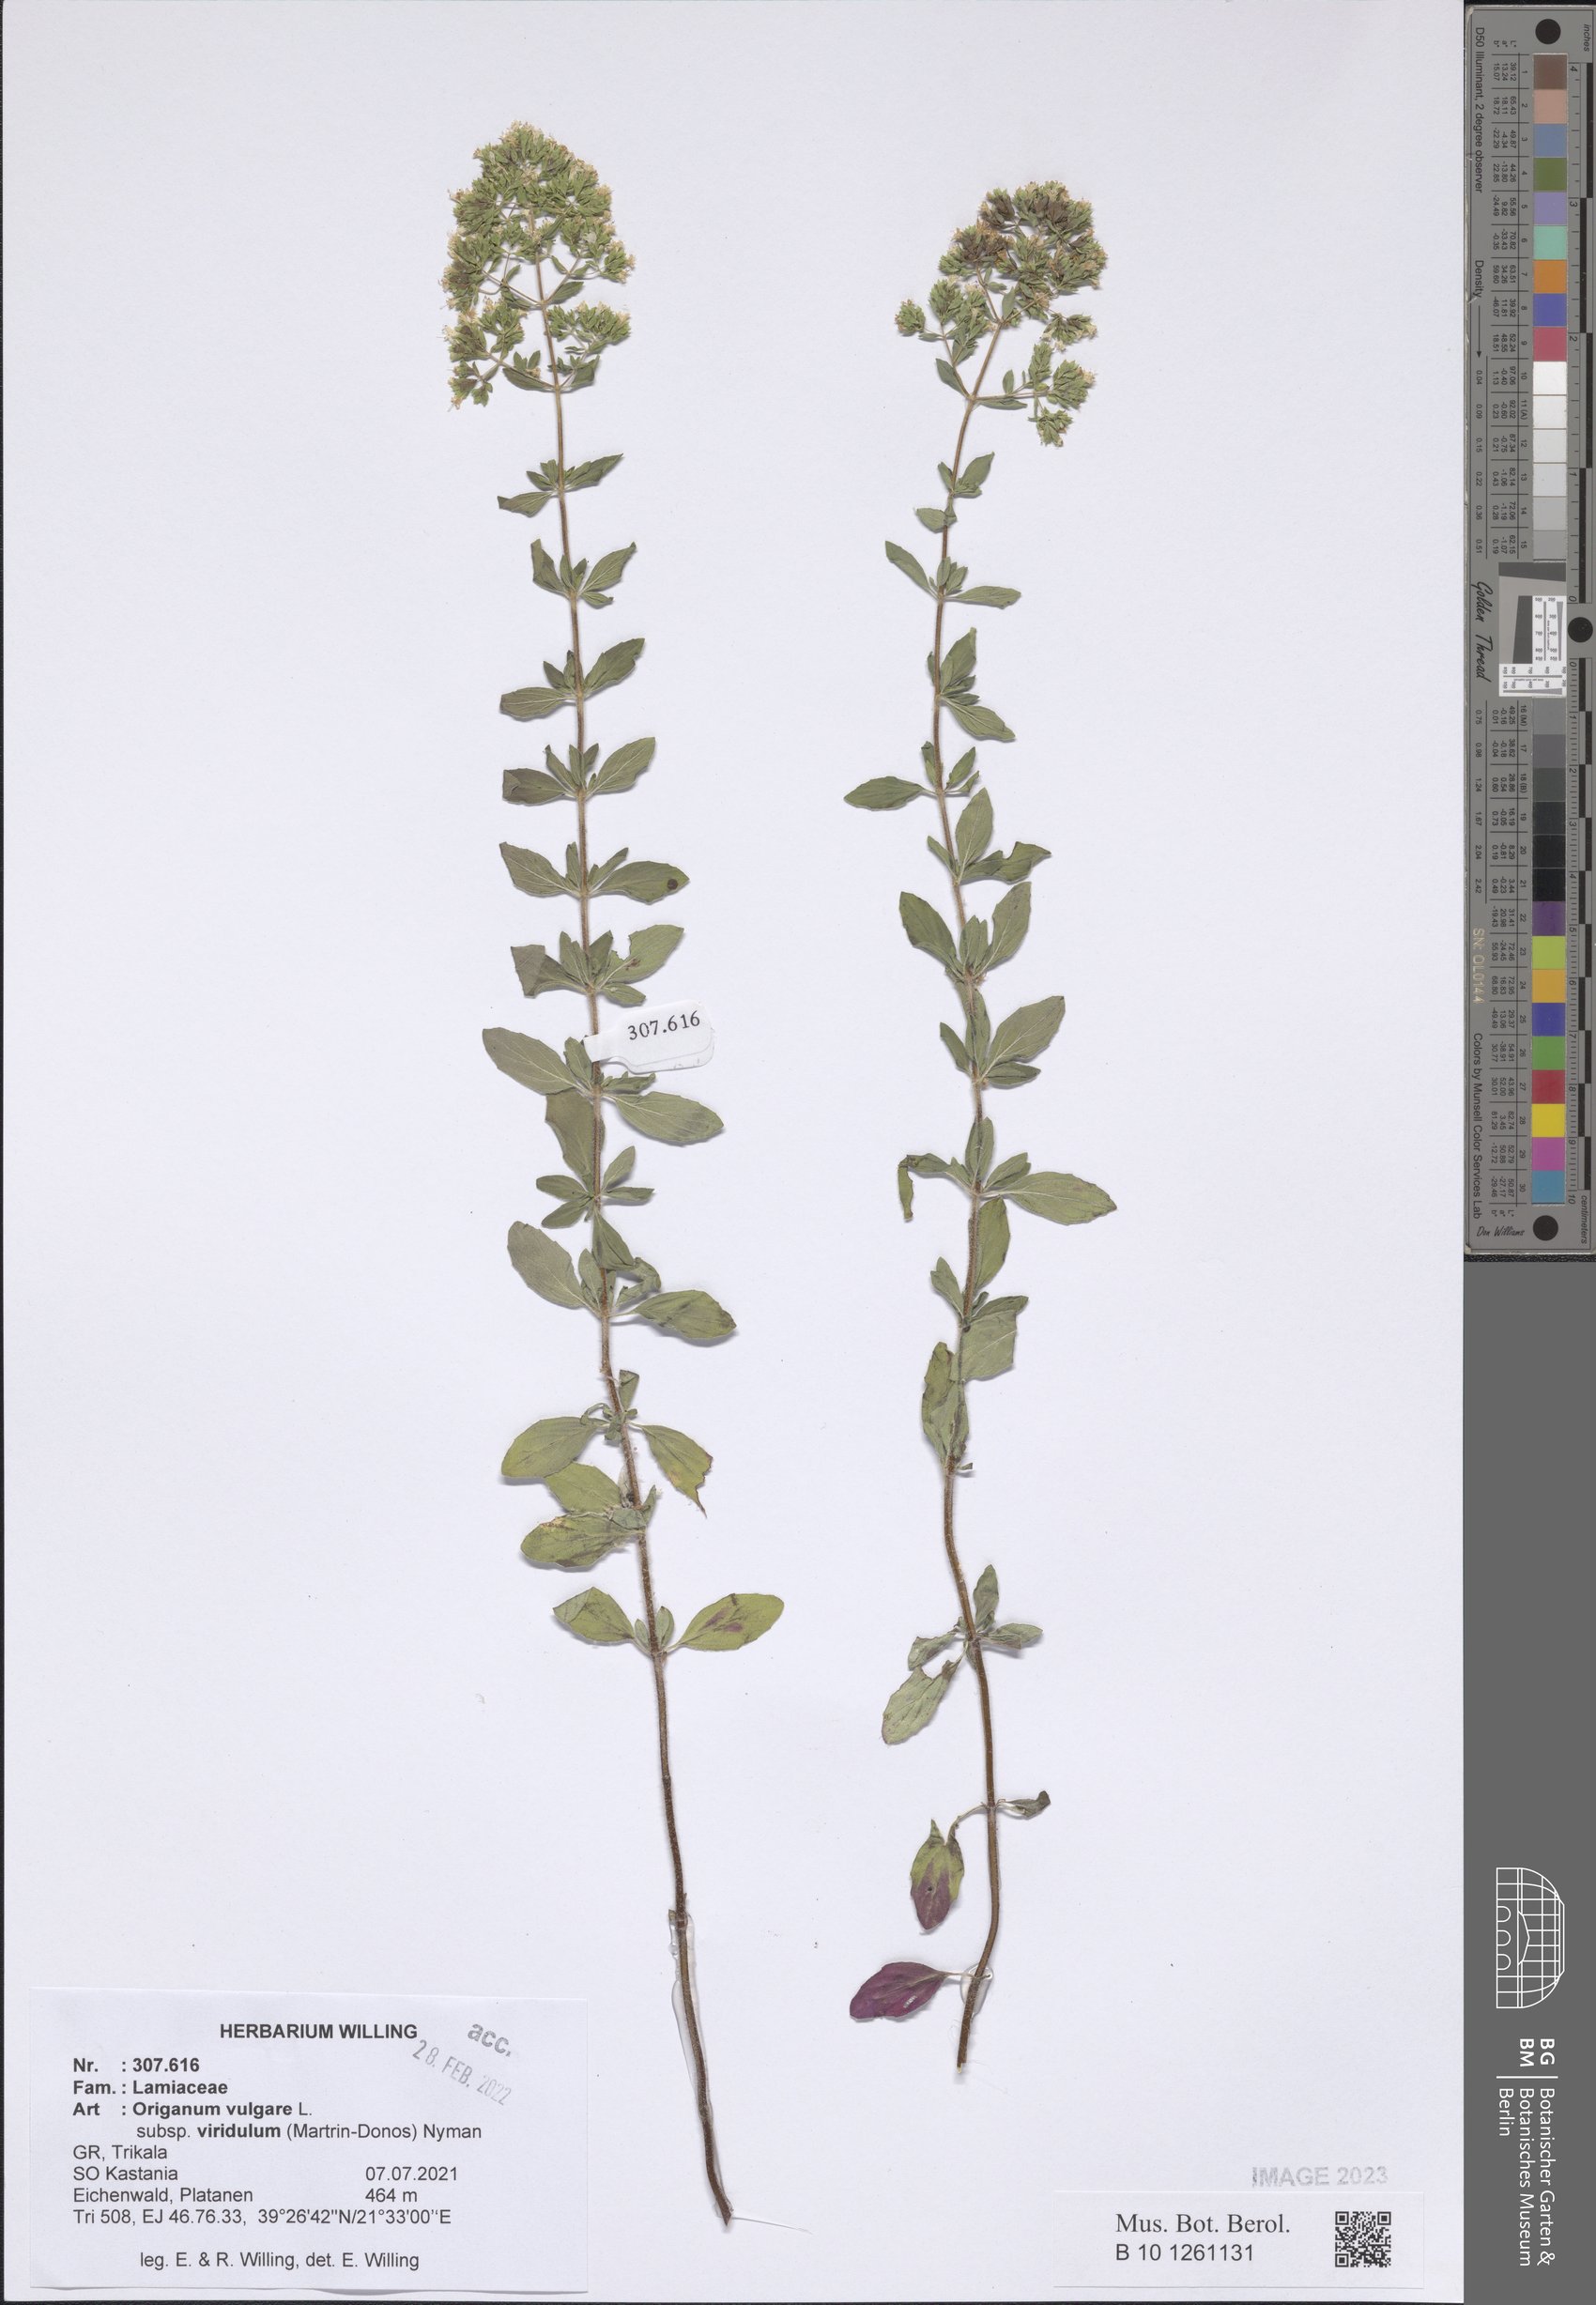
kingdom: Plantae
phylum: Tracheophyta
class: Magnoliopsida
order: Lamiales
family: Lamiaceae
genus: Origanum
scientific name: Origanum vulgare
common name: Wild marjoram
